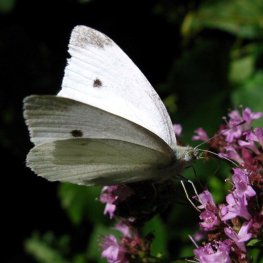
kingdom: Animalia
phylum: Arthropoda
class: Insecta
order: Lepidoptera
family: Pieridae
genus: Pieris
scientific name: Pieris rapae
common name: Cabbage White
